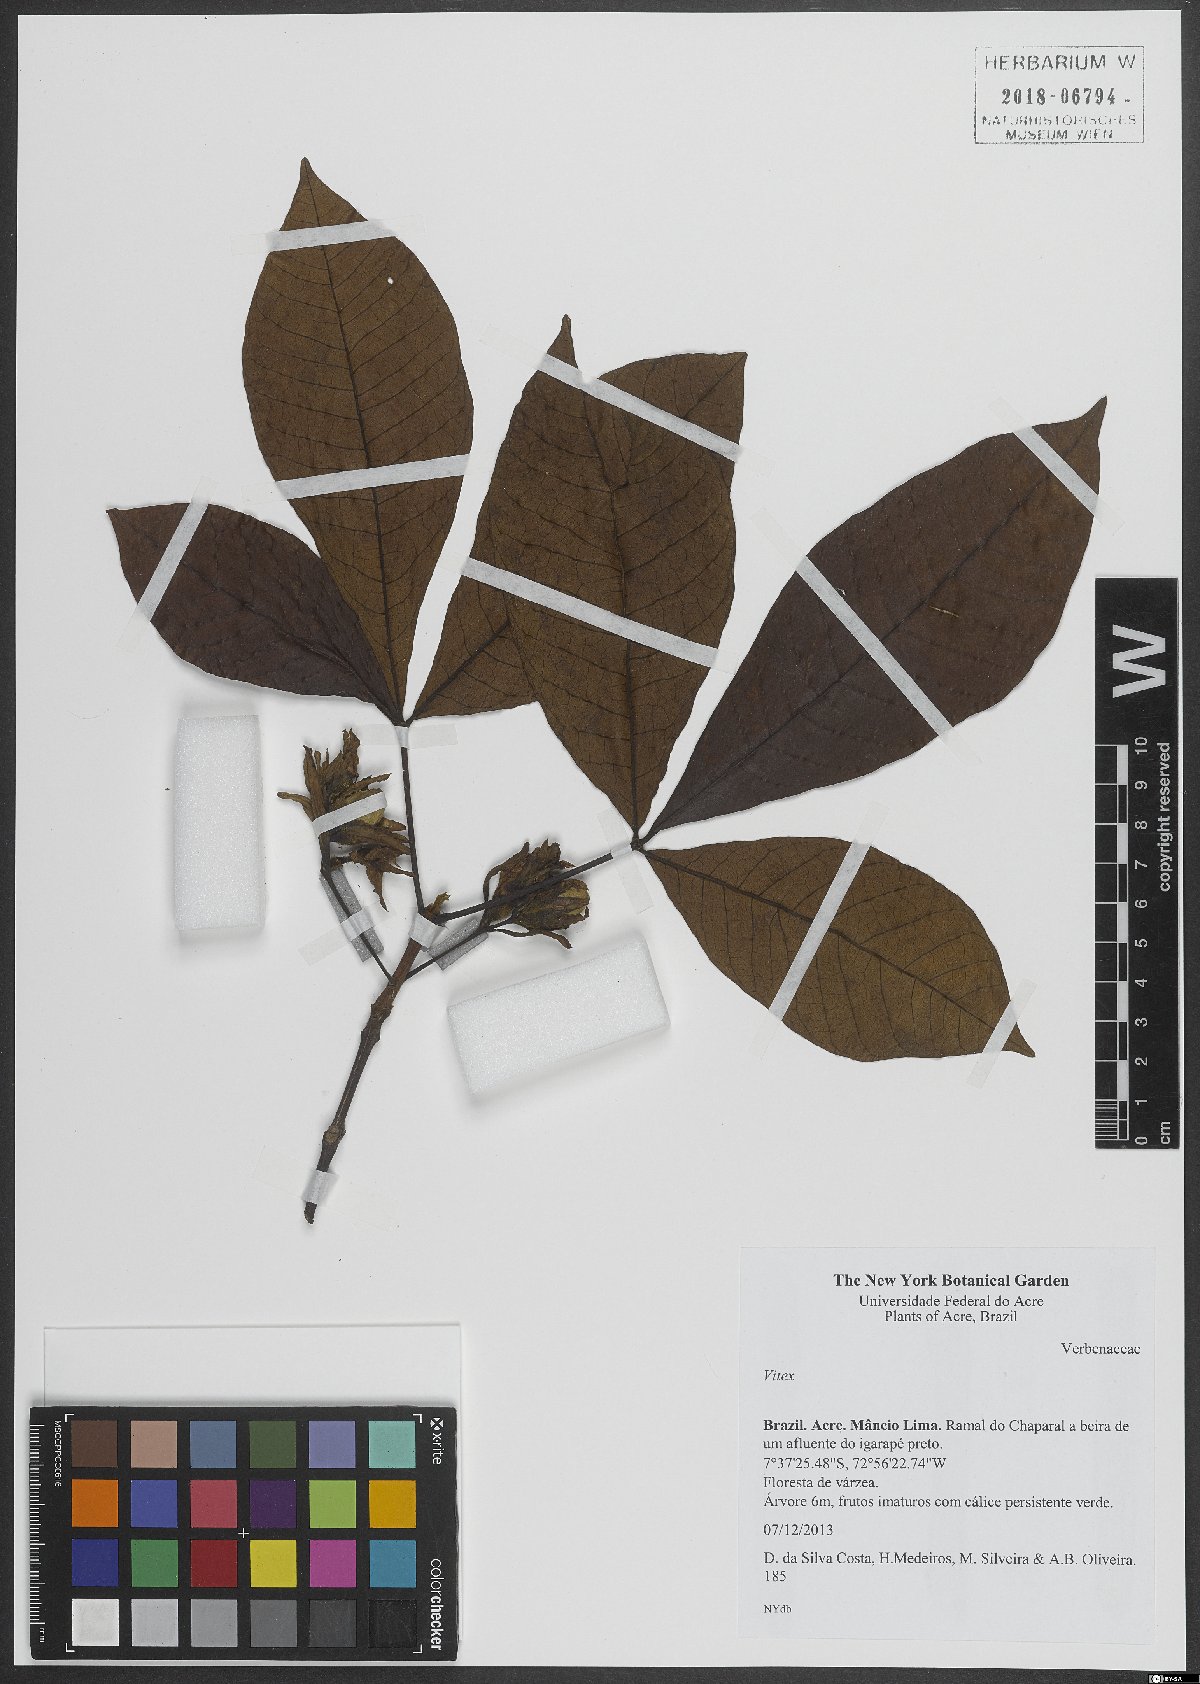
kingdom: Plantae
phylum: Tracheophyta
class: Magnoliopsida
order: Lamiales
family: Lamiaceae
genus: Vitex
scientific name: Vitex
